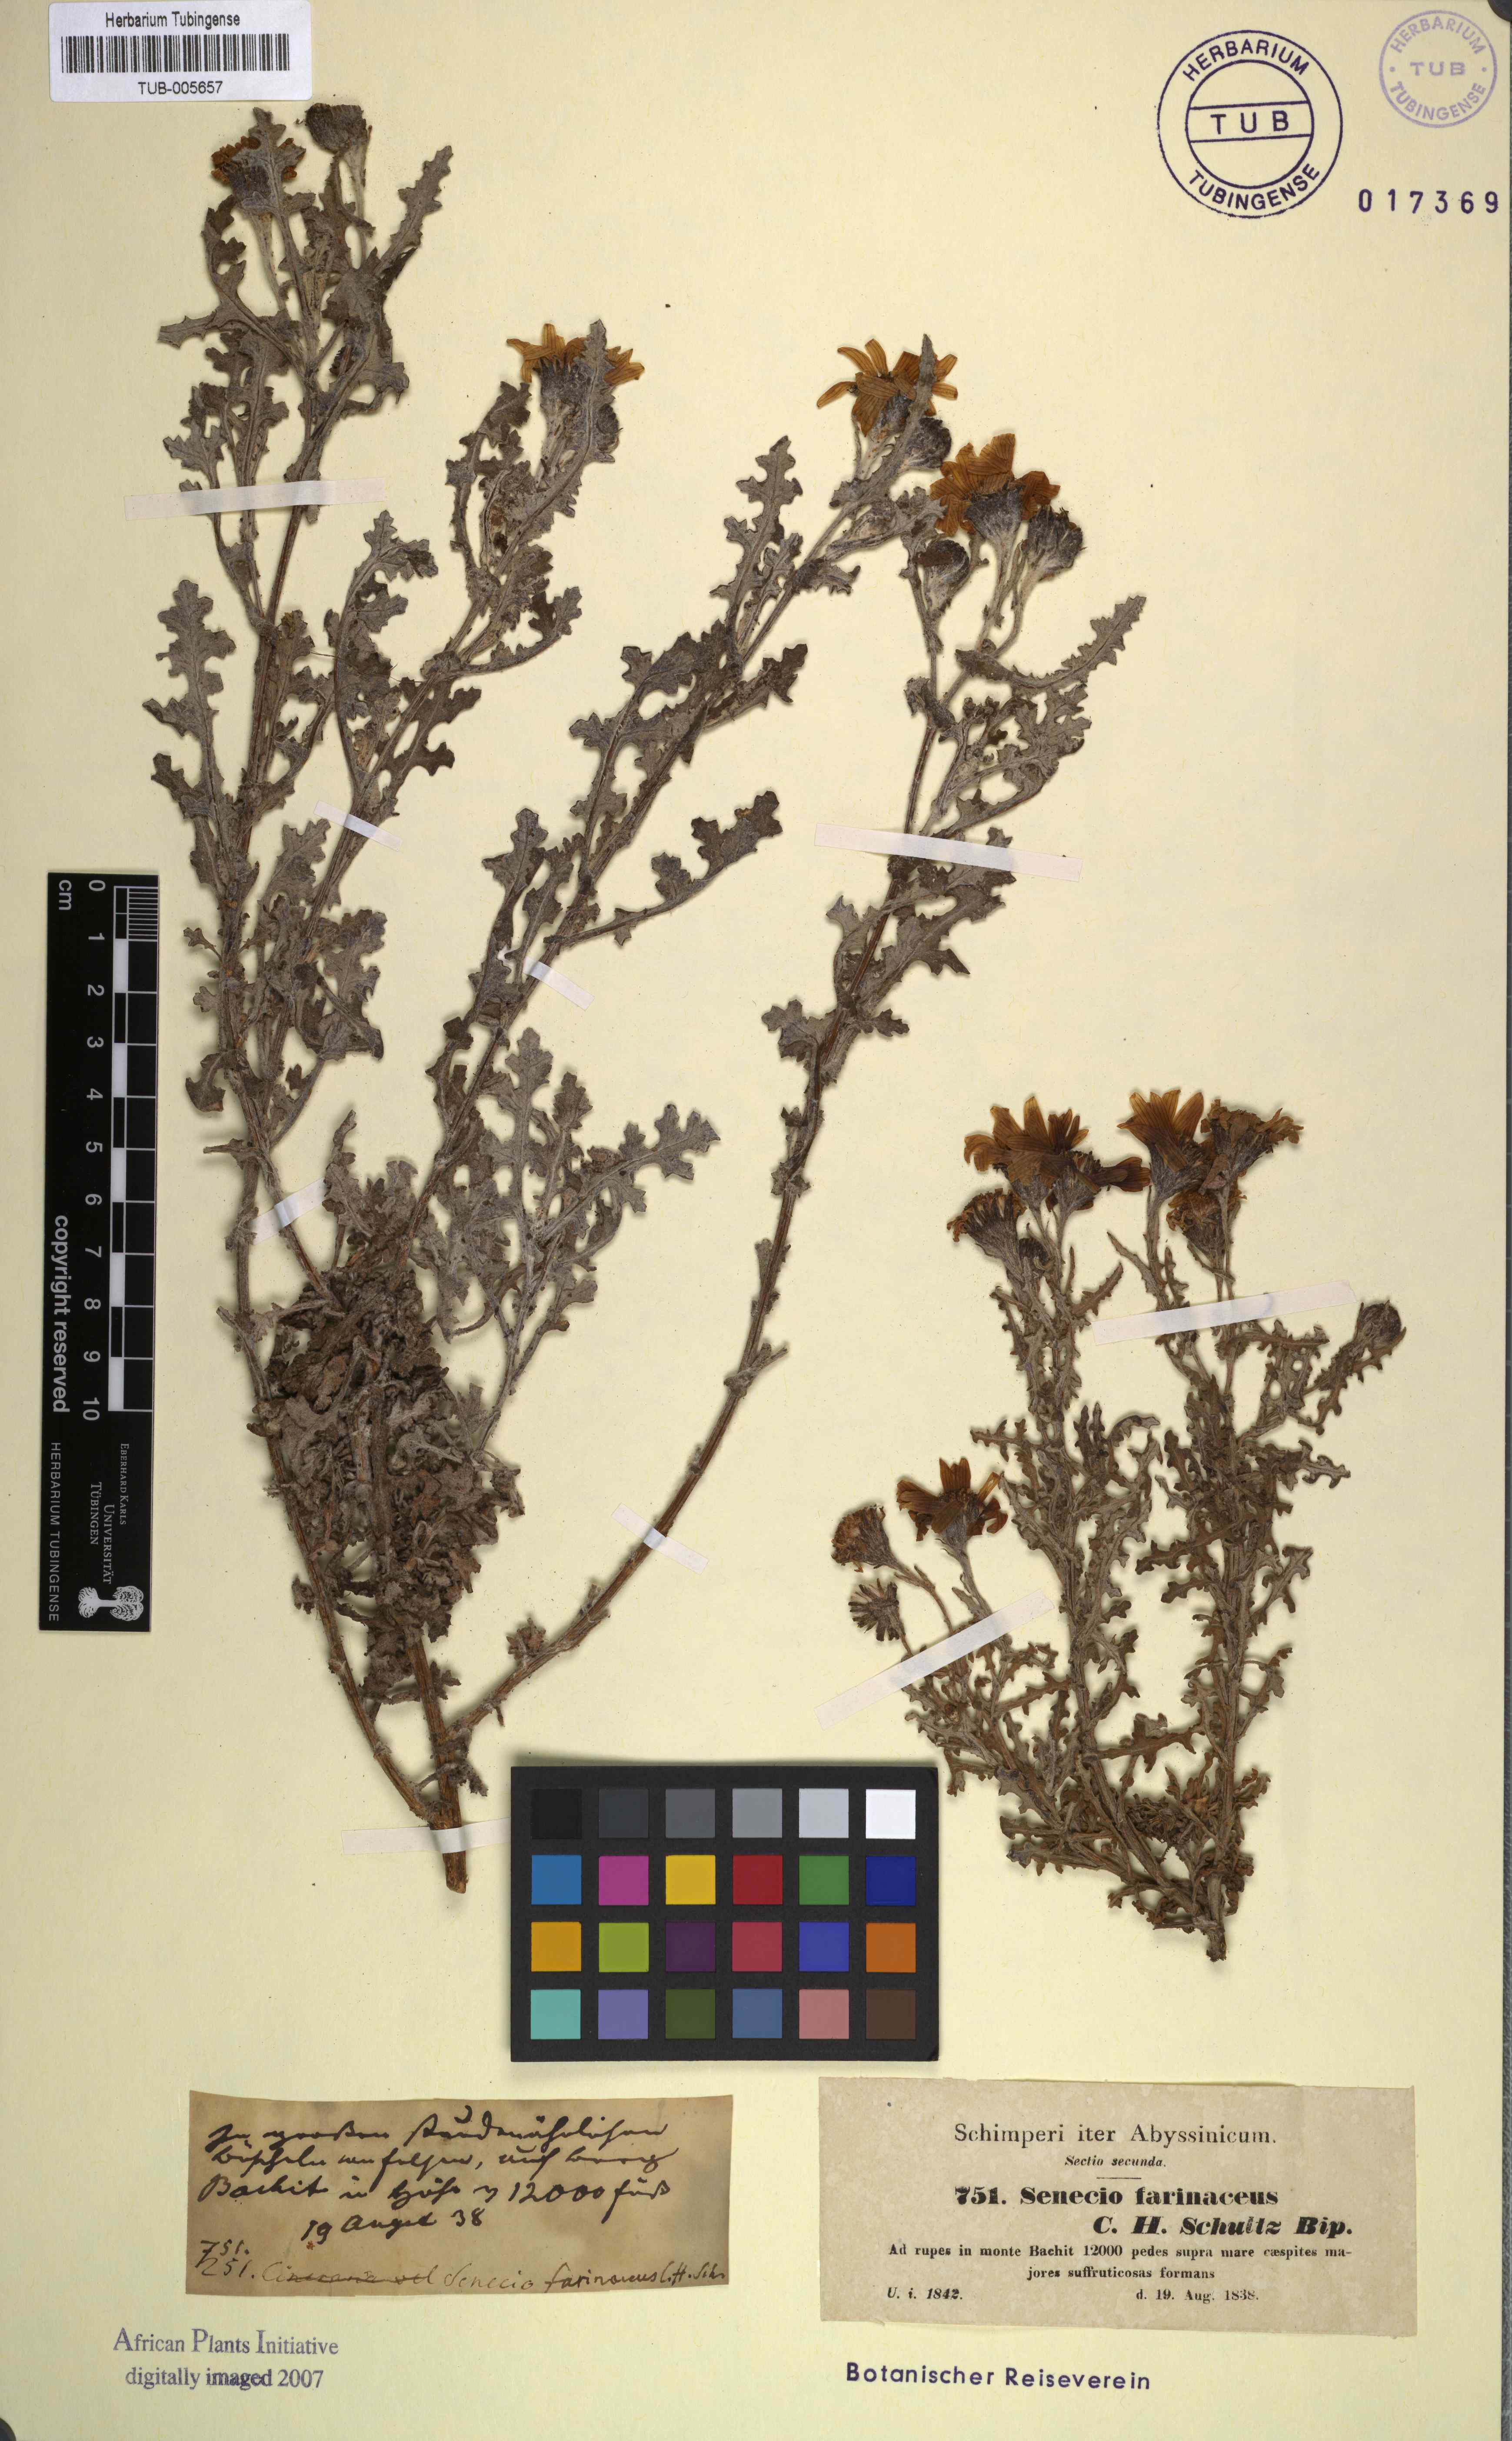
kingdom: Plantae
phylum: Tracheophyta
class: Magnoliopsida
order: Asterales
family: Asteraceae
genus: Senecio
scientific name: Senecio farinaceus
